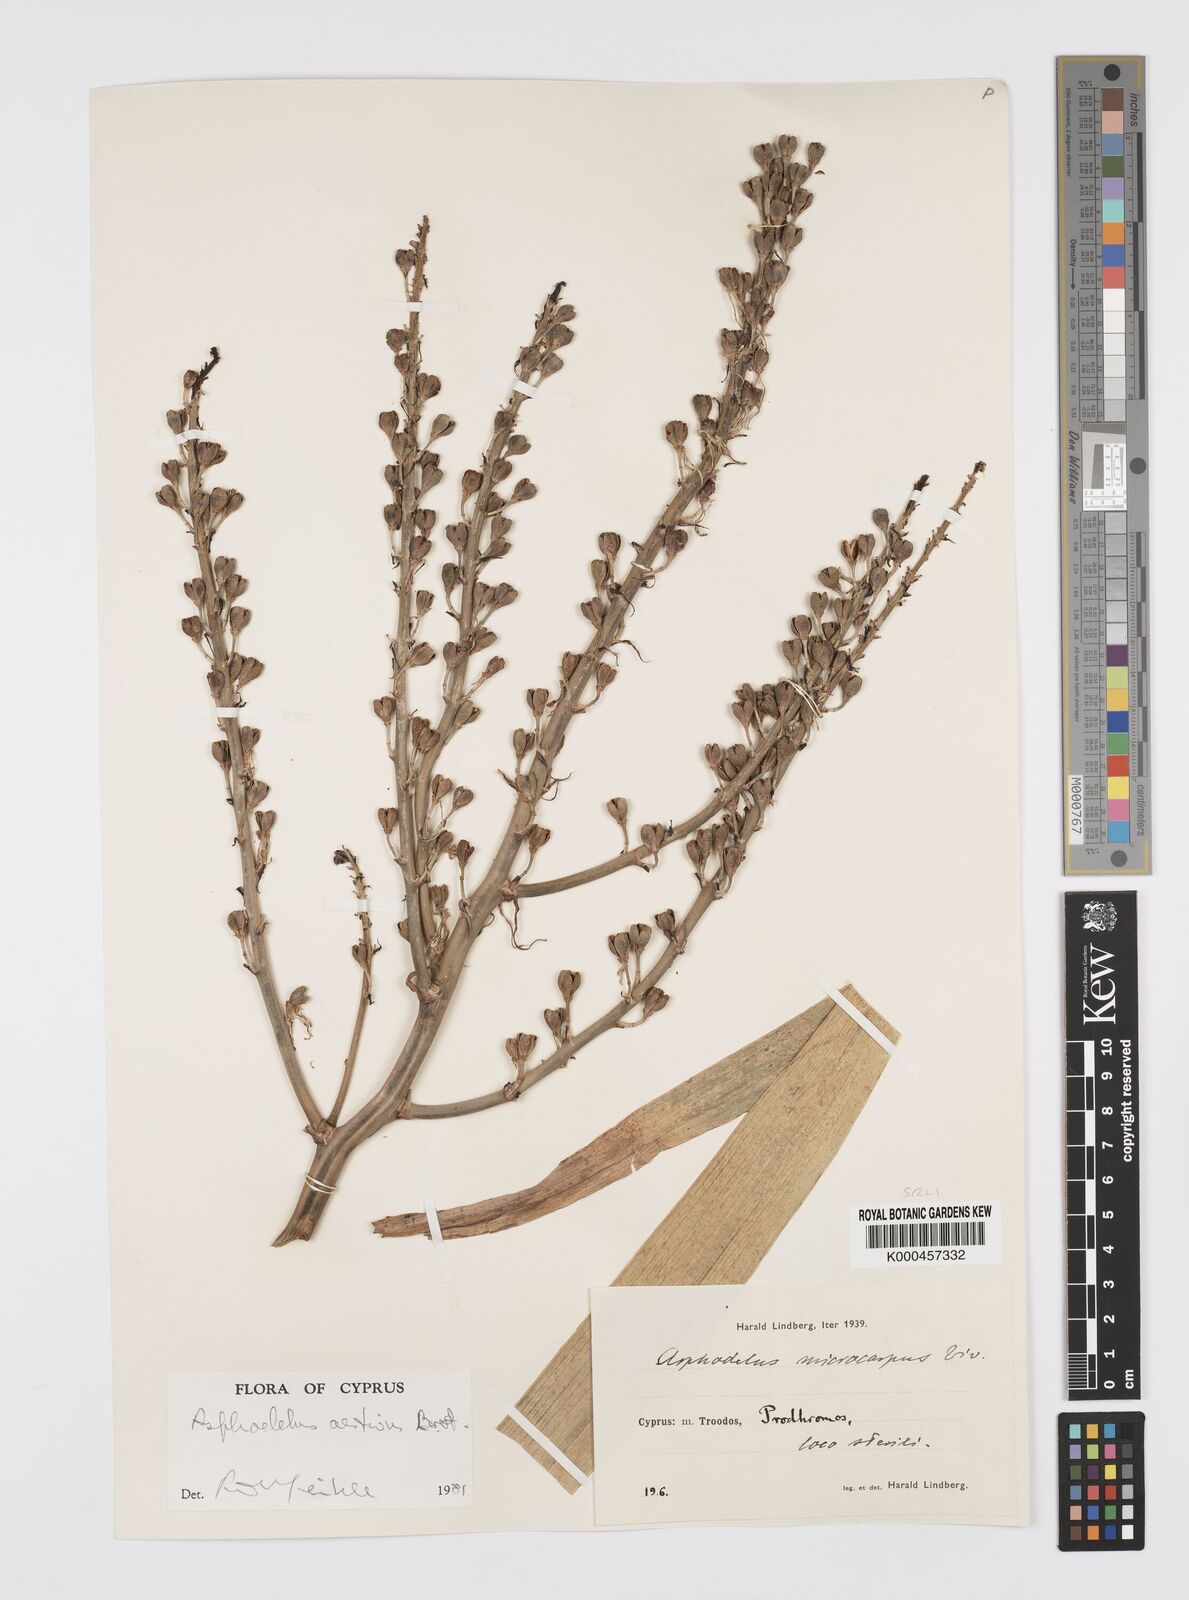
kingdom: Plantae
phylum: Tracheophyta
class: Liliopsida
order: Asparagales
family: Asphodelaceae
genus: Asphodelus
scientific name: Asphodelus aestivus
